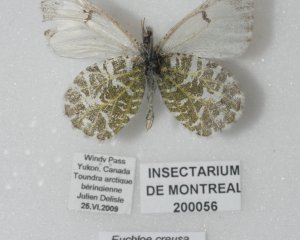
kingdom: Animalia
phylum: Arthropoda
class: Insecta
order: Lepidoptera
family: Pieridae
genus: Euchloe
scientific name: Euchloe creusa
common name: Northern Marble
